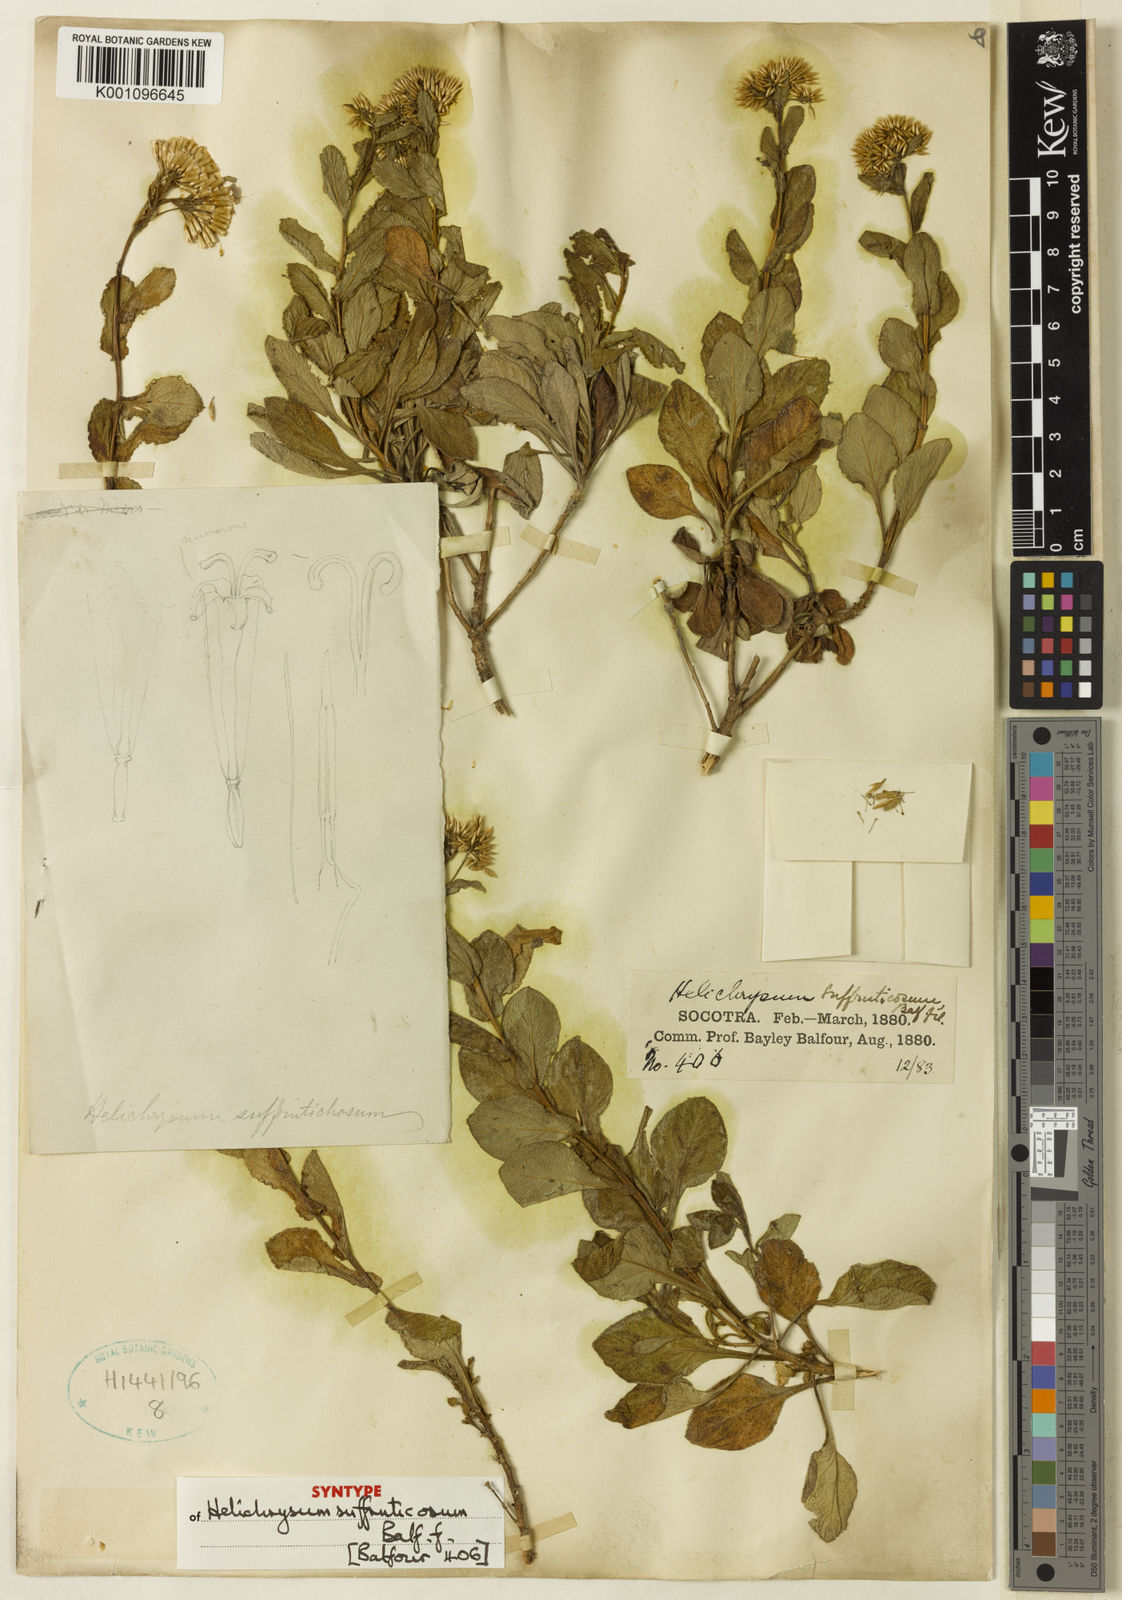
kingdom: Plantae
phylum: Tracheophyta
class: Magnoliopsida
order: Asterales
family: Asteraceae
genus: Libinhania
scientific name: Libinhania suffruticosa
